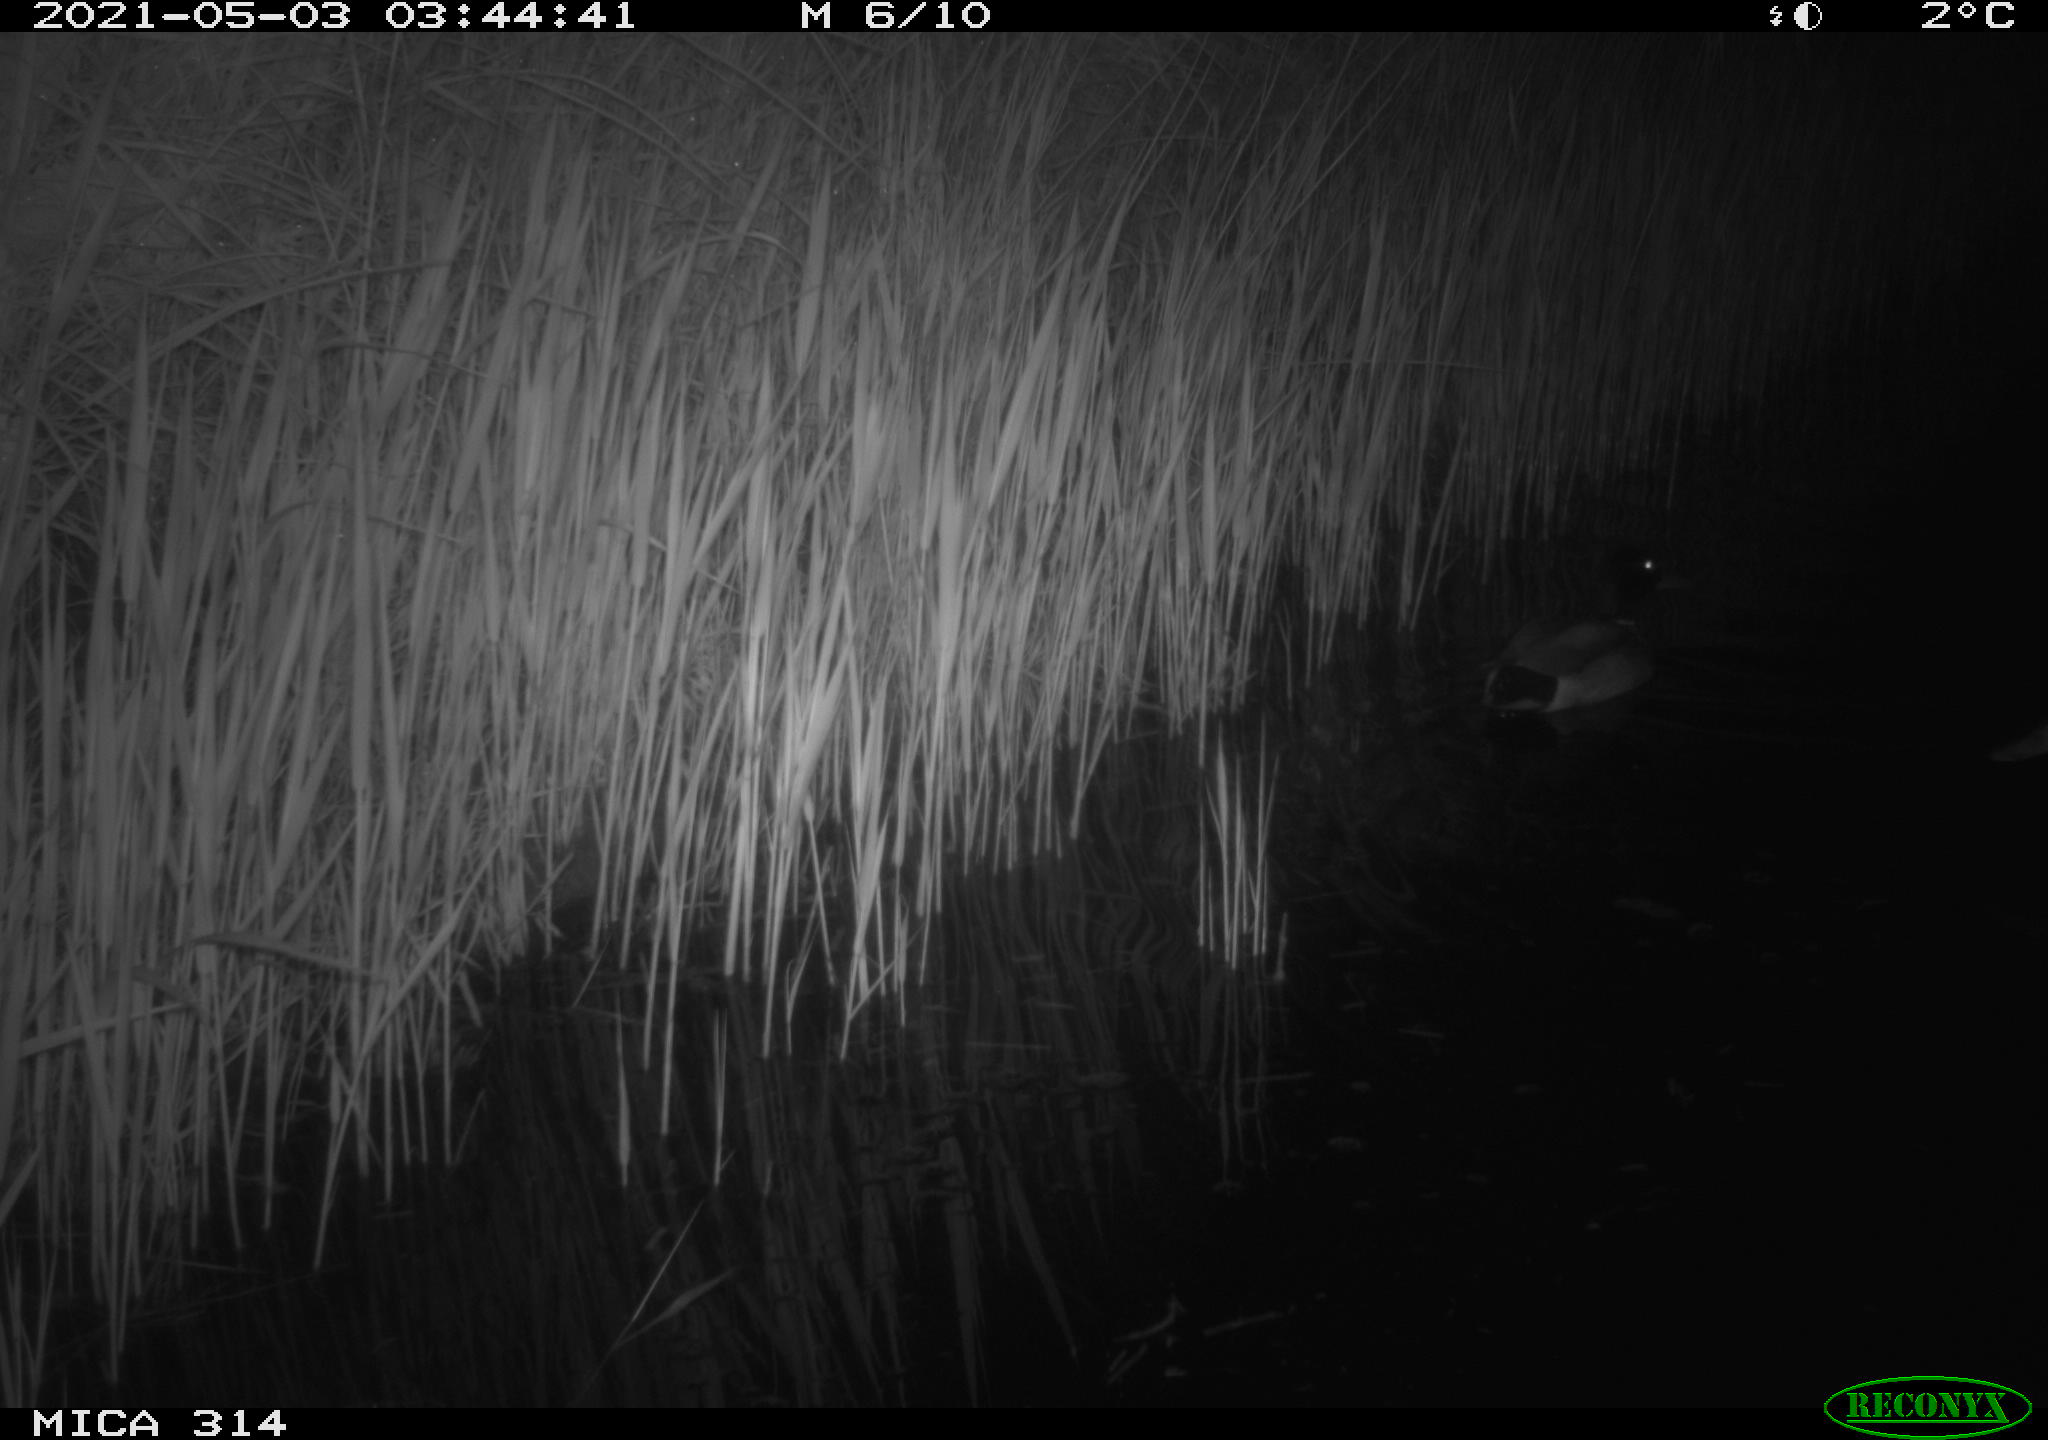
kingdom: Animalia
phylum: Chordata
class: Aves
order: Anseriformes
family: Anatidae
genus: Anas
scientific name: Anas platyrhynchos
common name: Mallard
